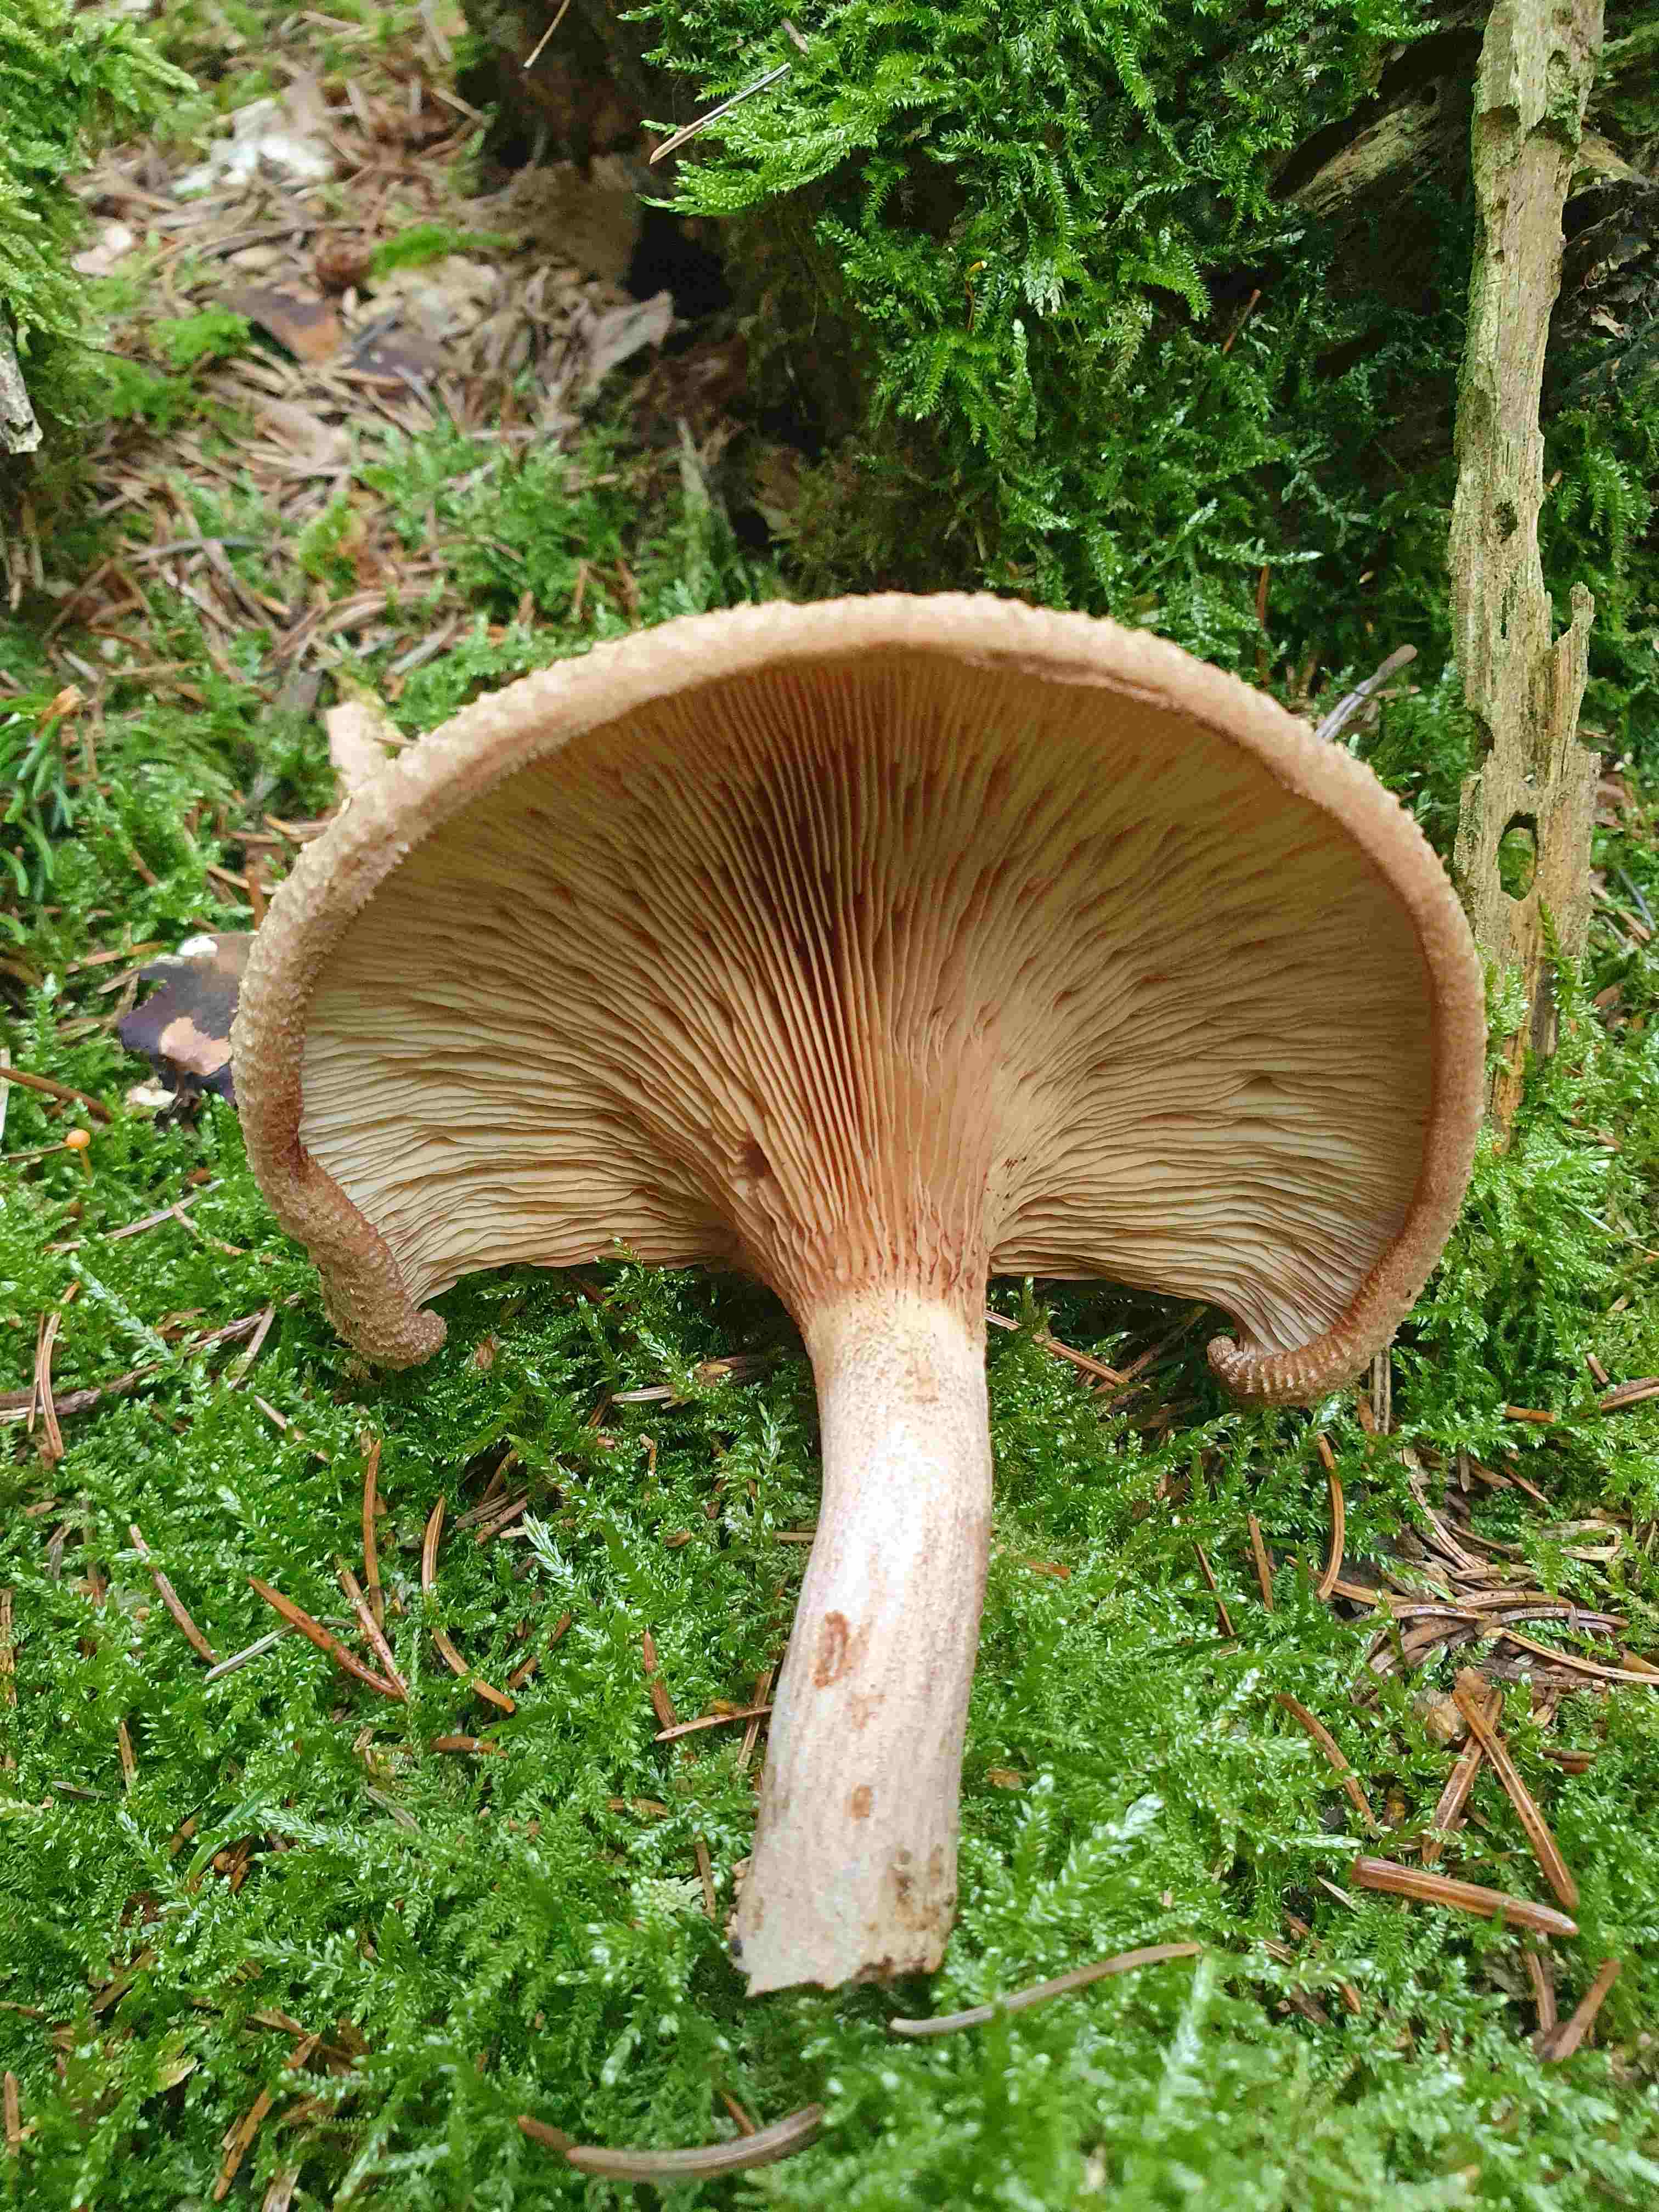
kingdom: Fungi
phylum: Basidiomycota
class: Agaricomycetes
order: Boletales
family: Paxillaceae
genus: Paxillus
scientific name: Paxillus involutus
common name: almindelig netbladhat
